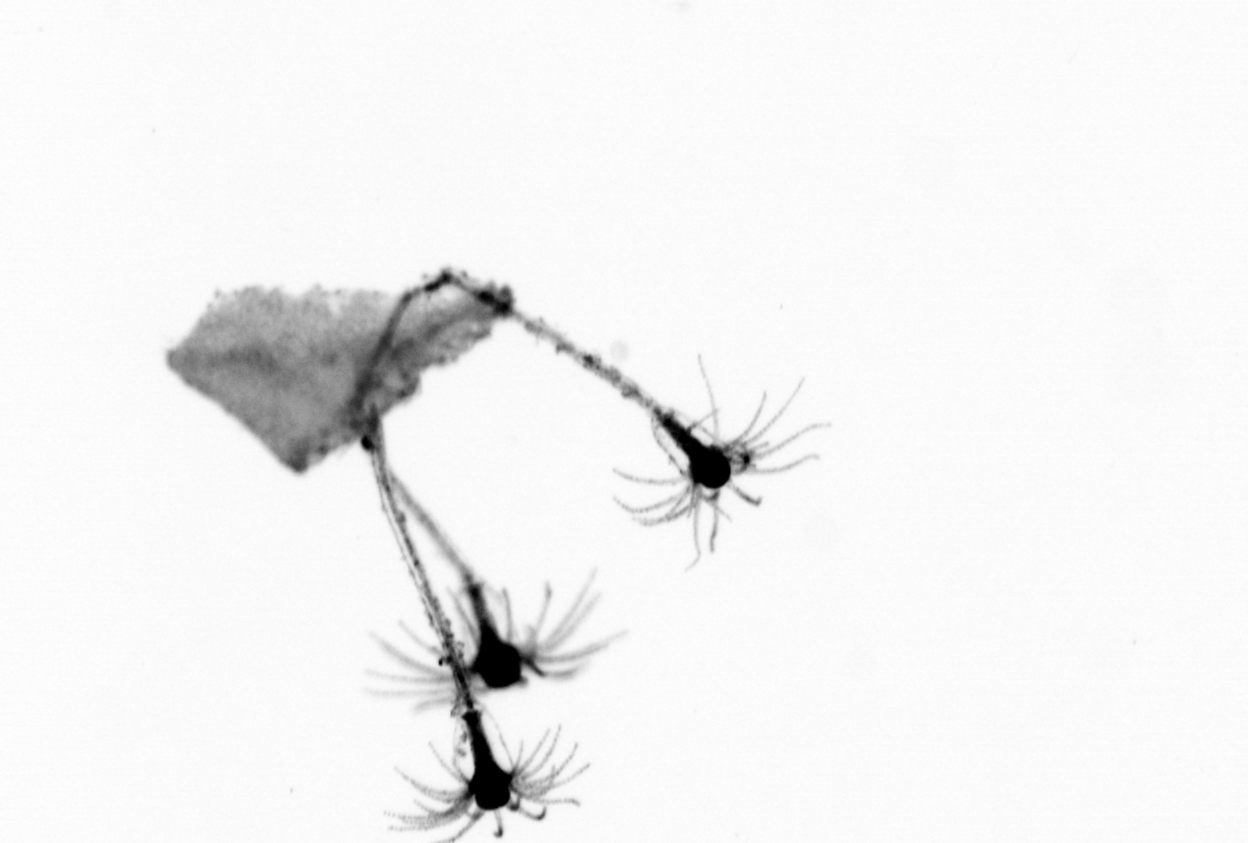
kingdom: Animalia
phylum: Cnidaria
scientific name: Cnidaria
